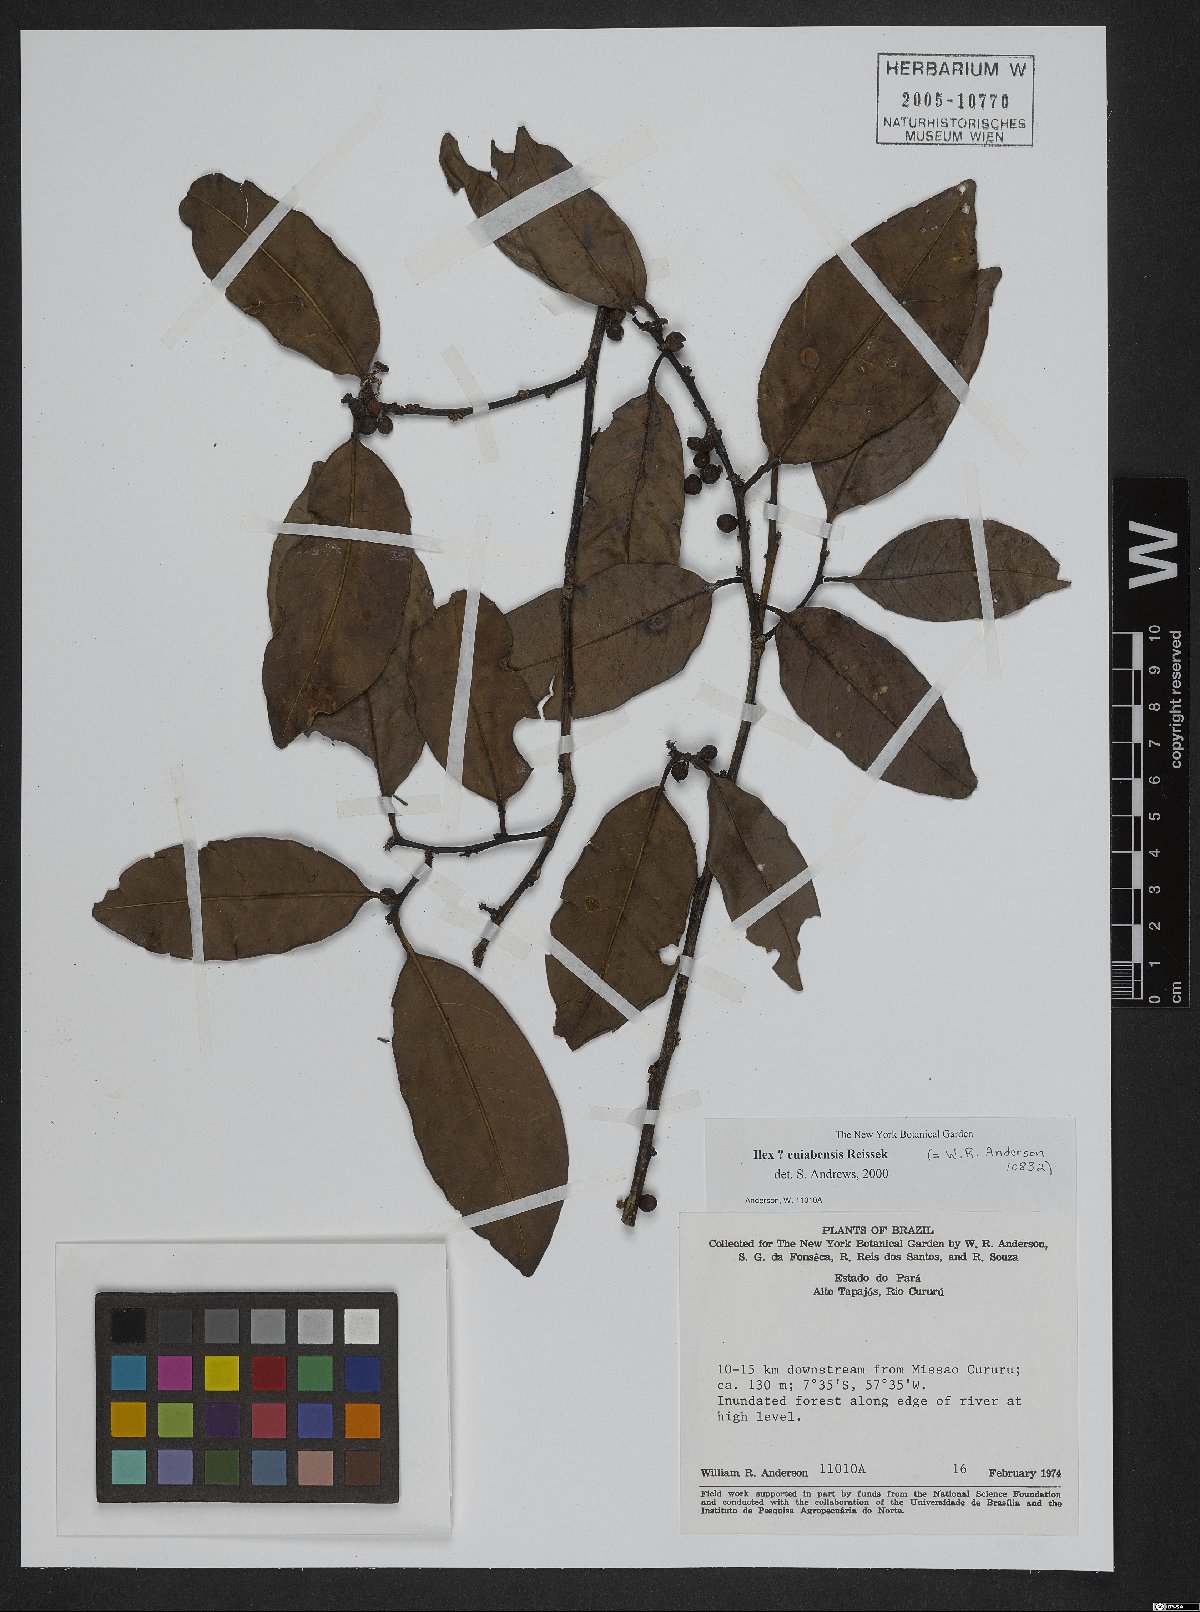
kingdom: Plantae
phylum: Tracheophyta
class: Magnoliopsida
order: Aquifoliales
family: Aquifoliaceae
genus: Ilex
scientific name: Ilex cuiabensis
